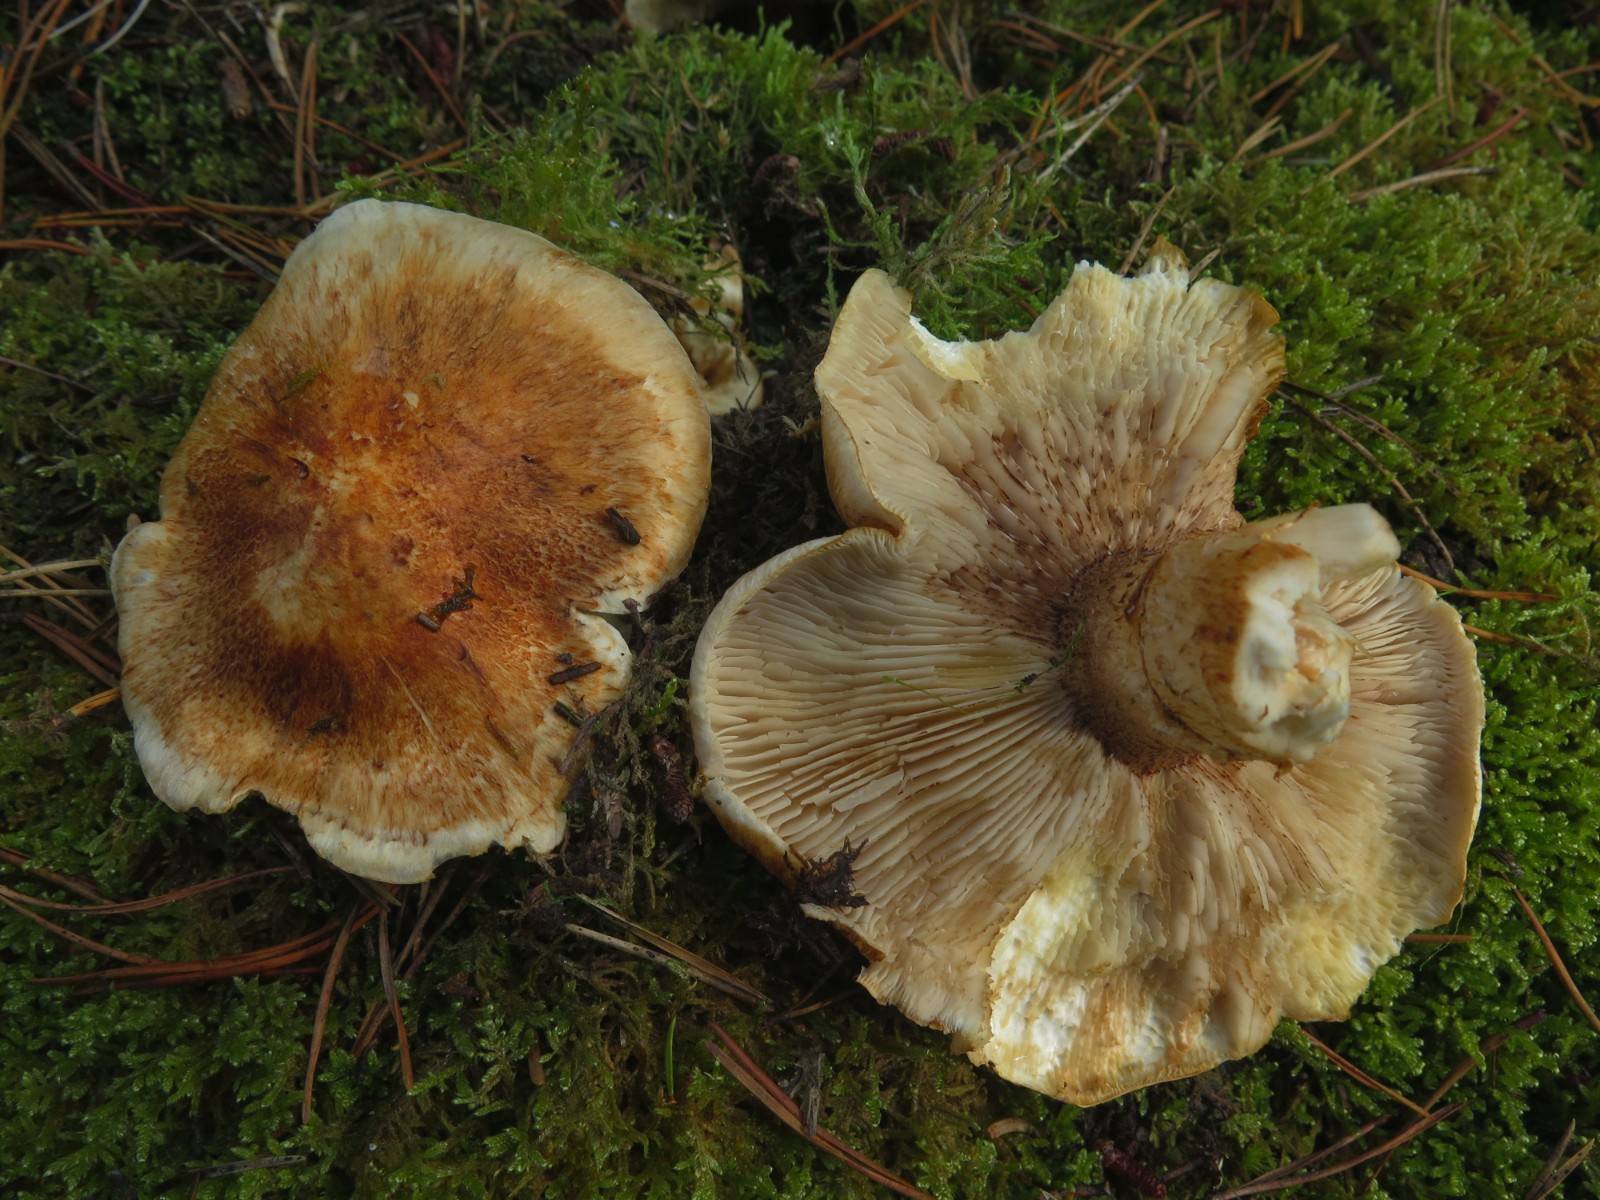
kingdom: Fungi
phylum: Basidiomycota
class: Agaricomycetes
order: Agaricales
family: Tricholomataceae
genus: Tricholoma
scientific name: Tricholoma focale
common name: halsbånd-ridderhat
